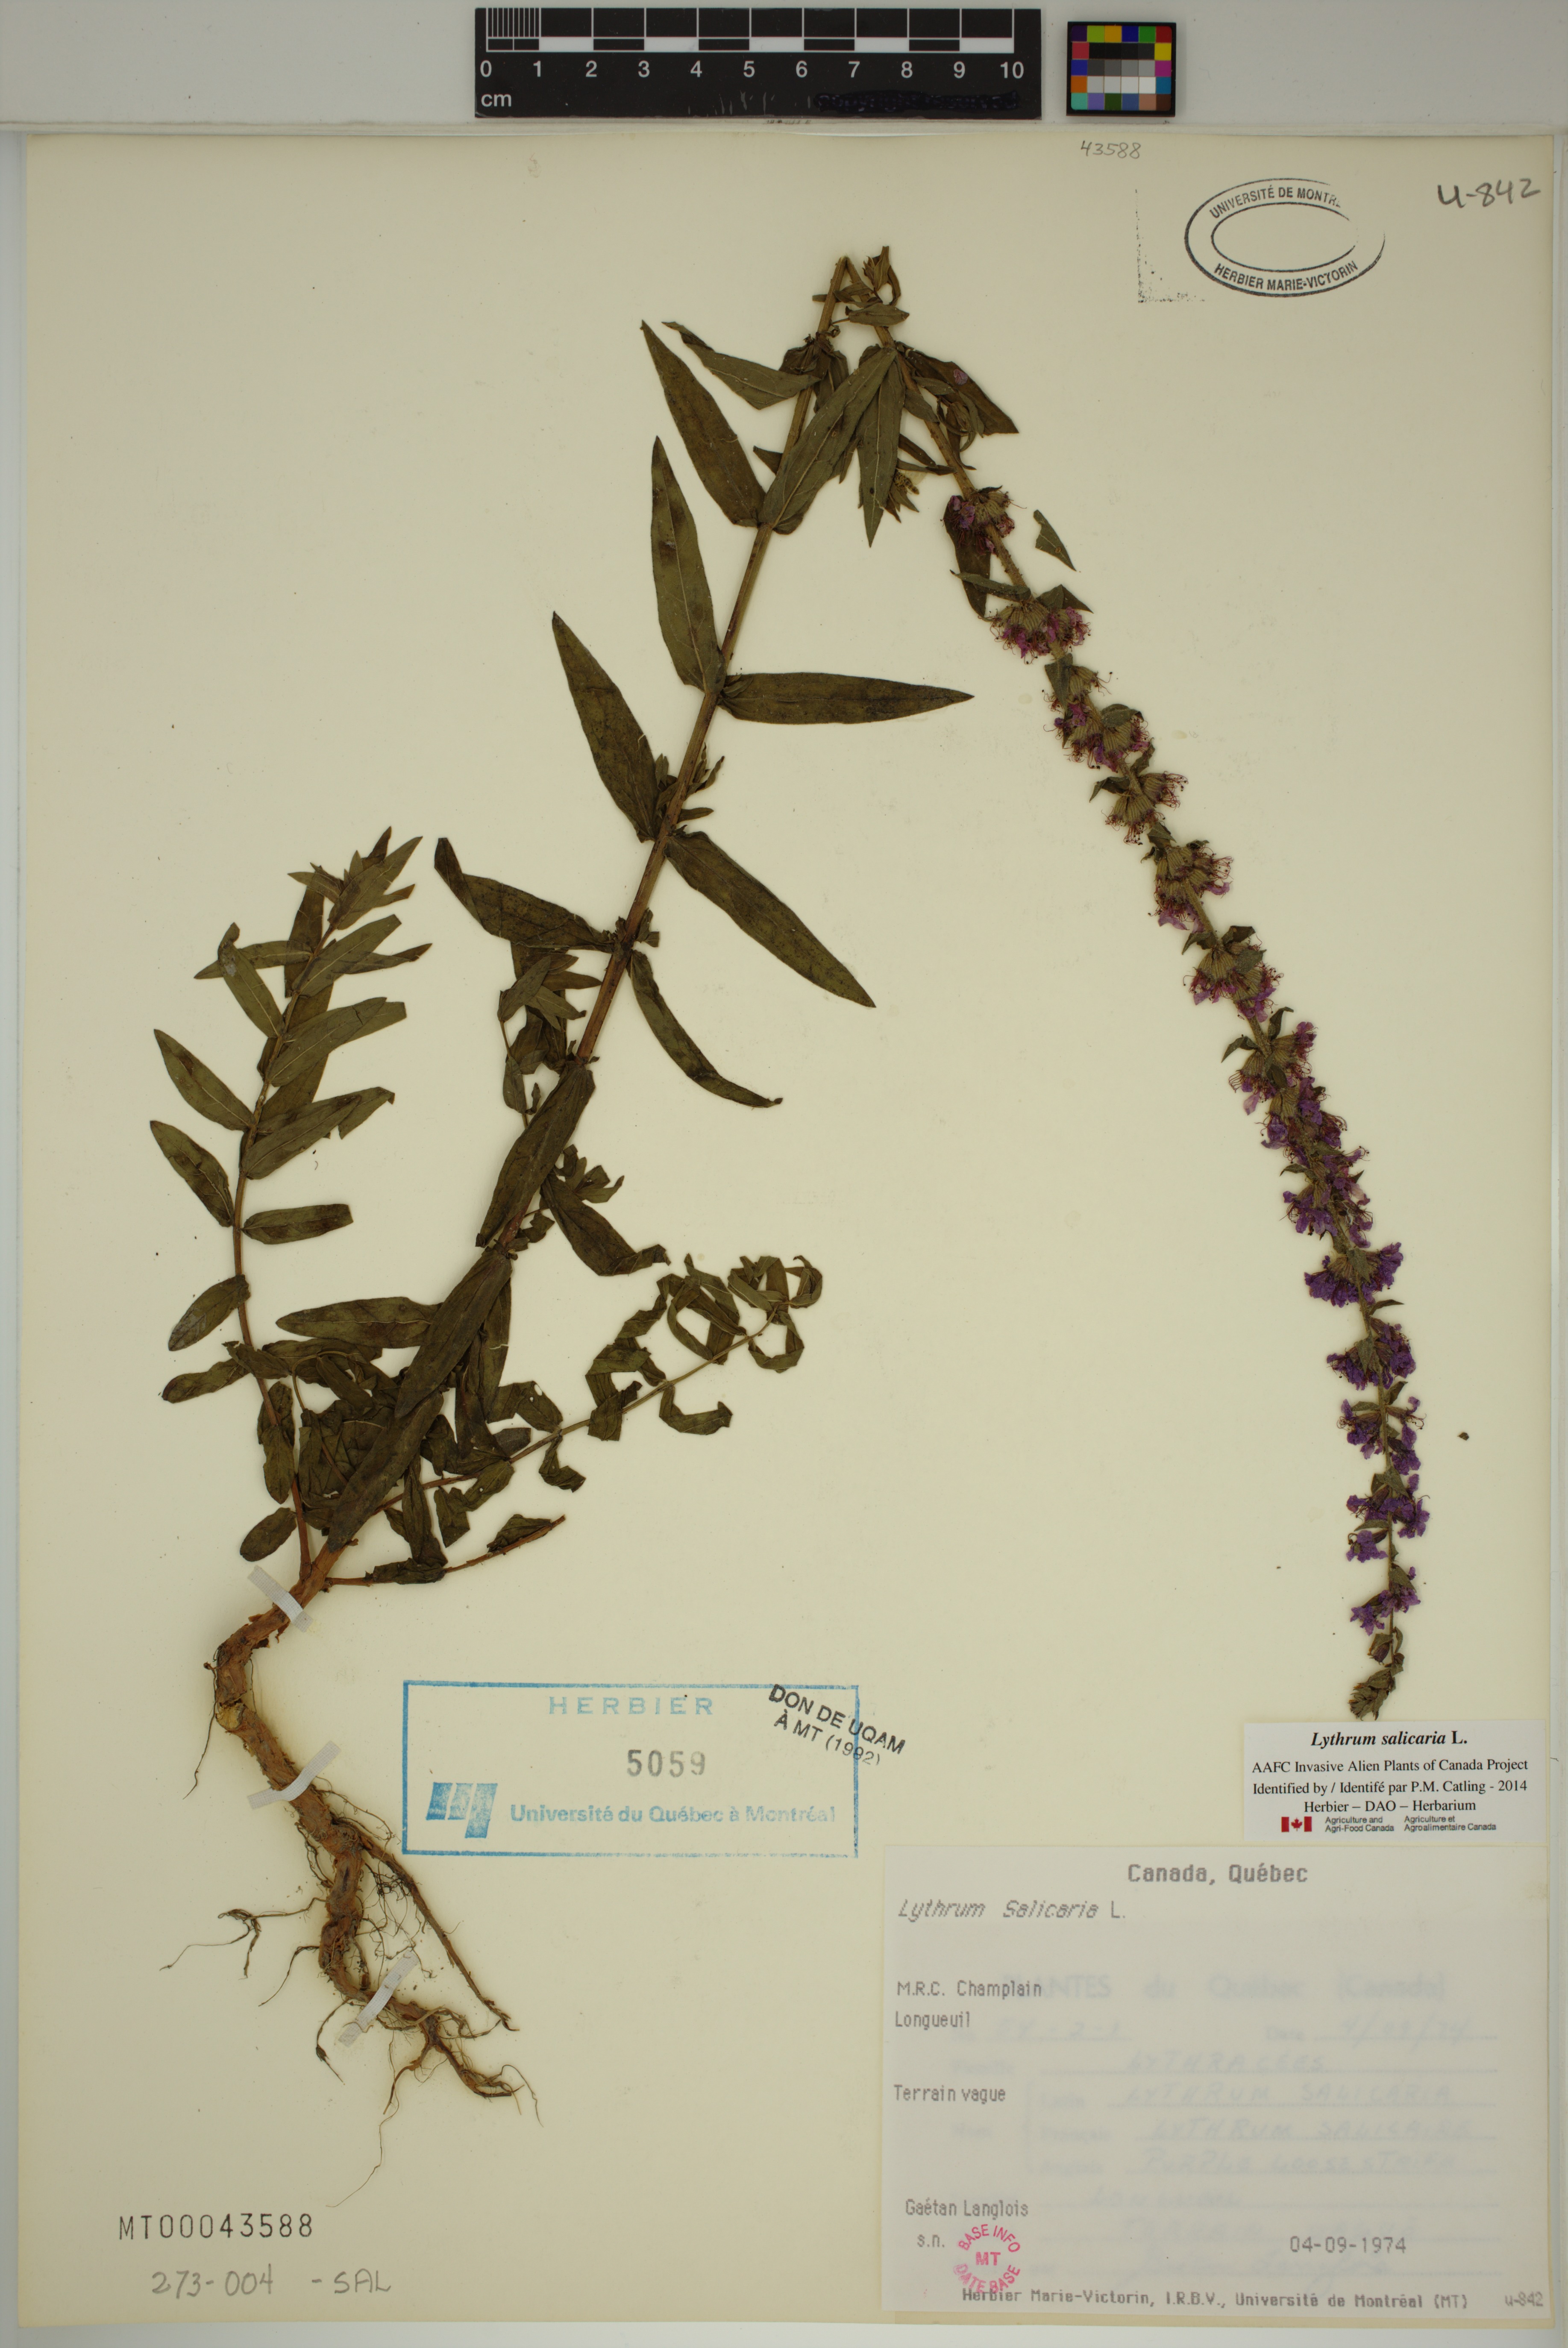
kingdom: Plantae
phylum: Tracheophyta
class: Magnoliopsida
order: Myrtales
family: Lythraceae
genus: Lythrum
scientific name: Lythrum salicaria
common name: Purple loosestrife
